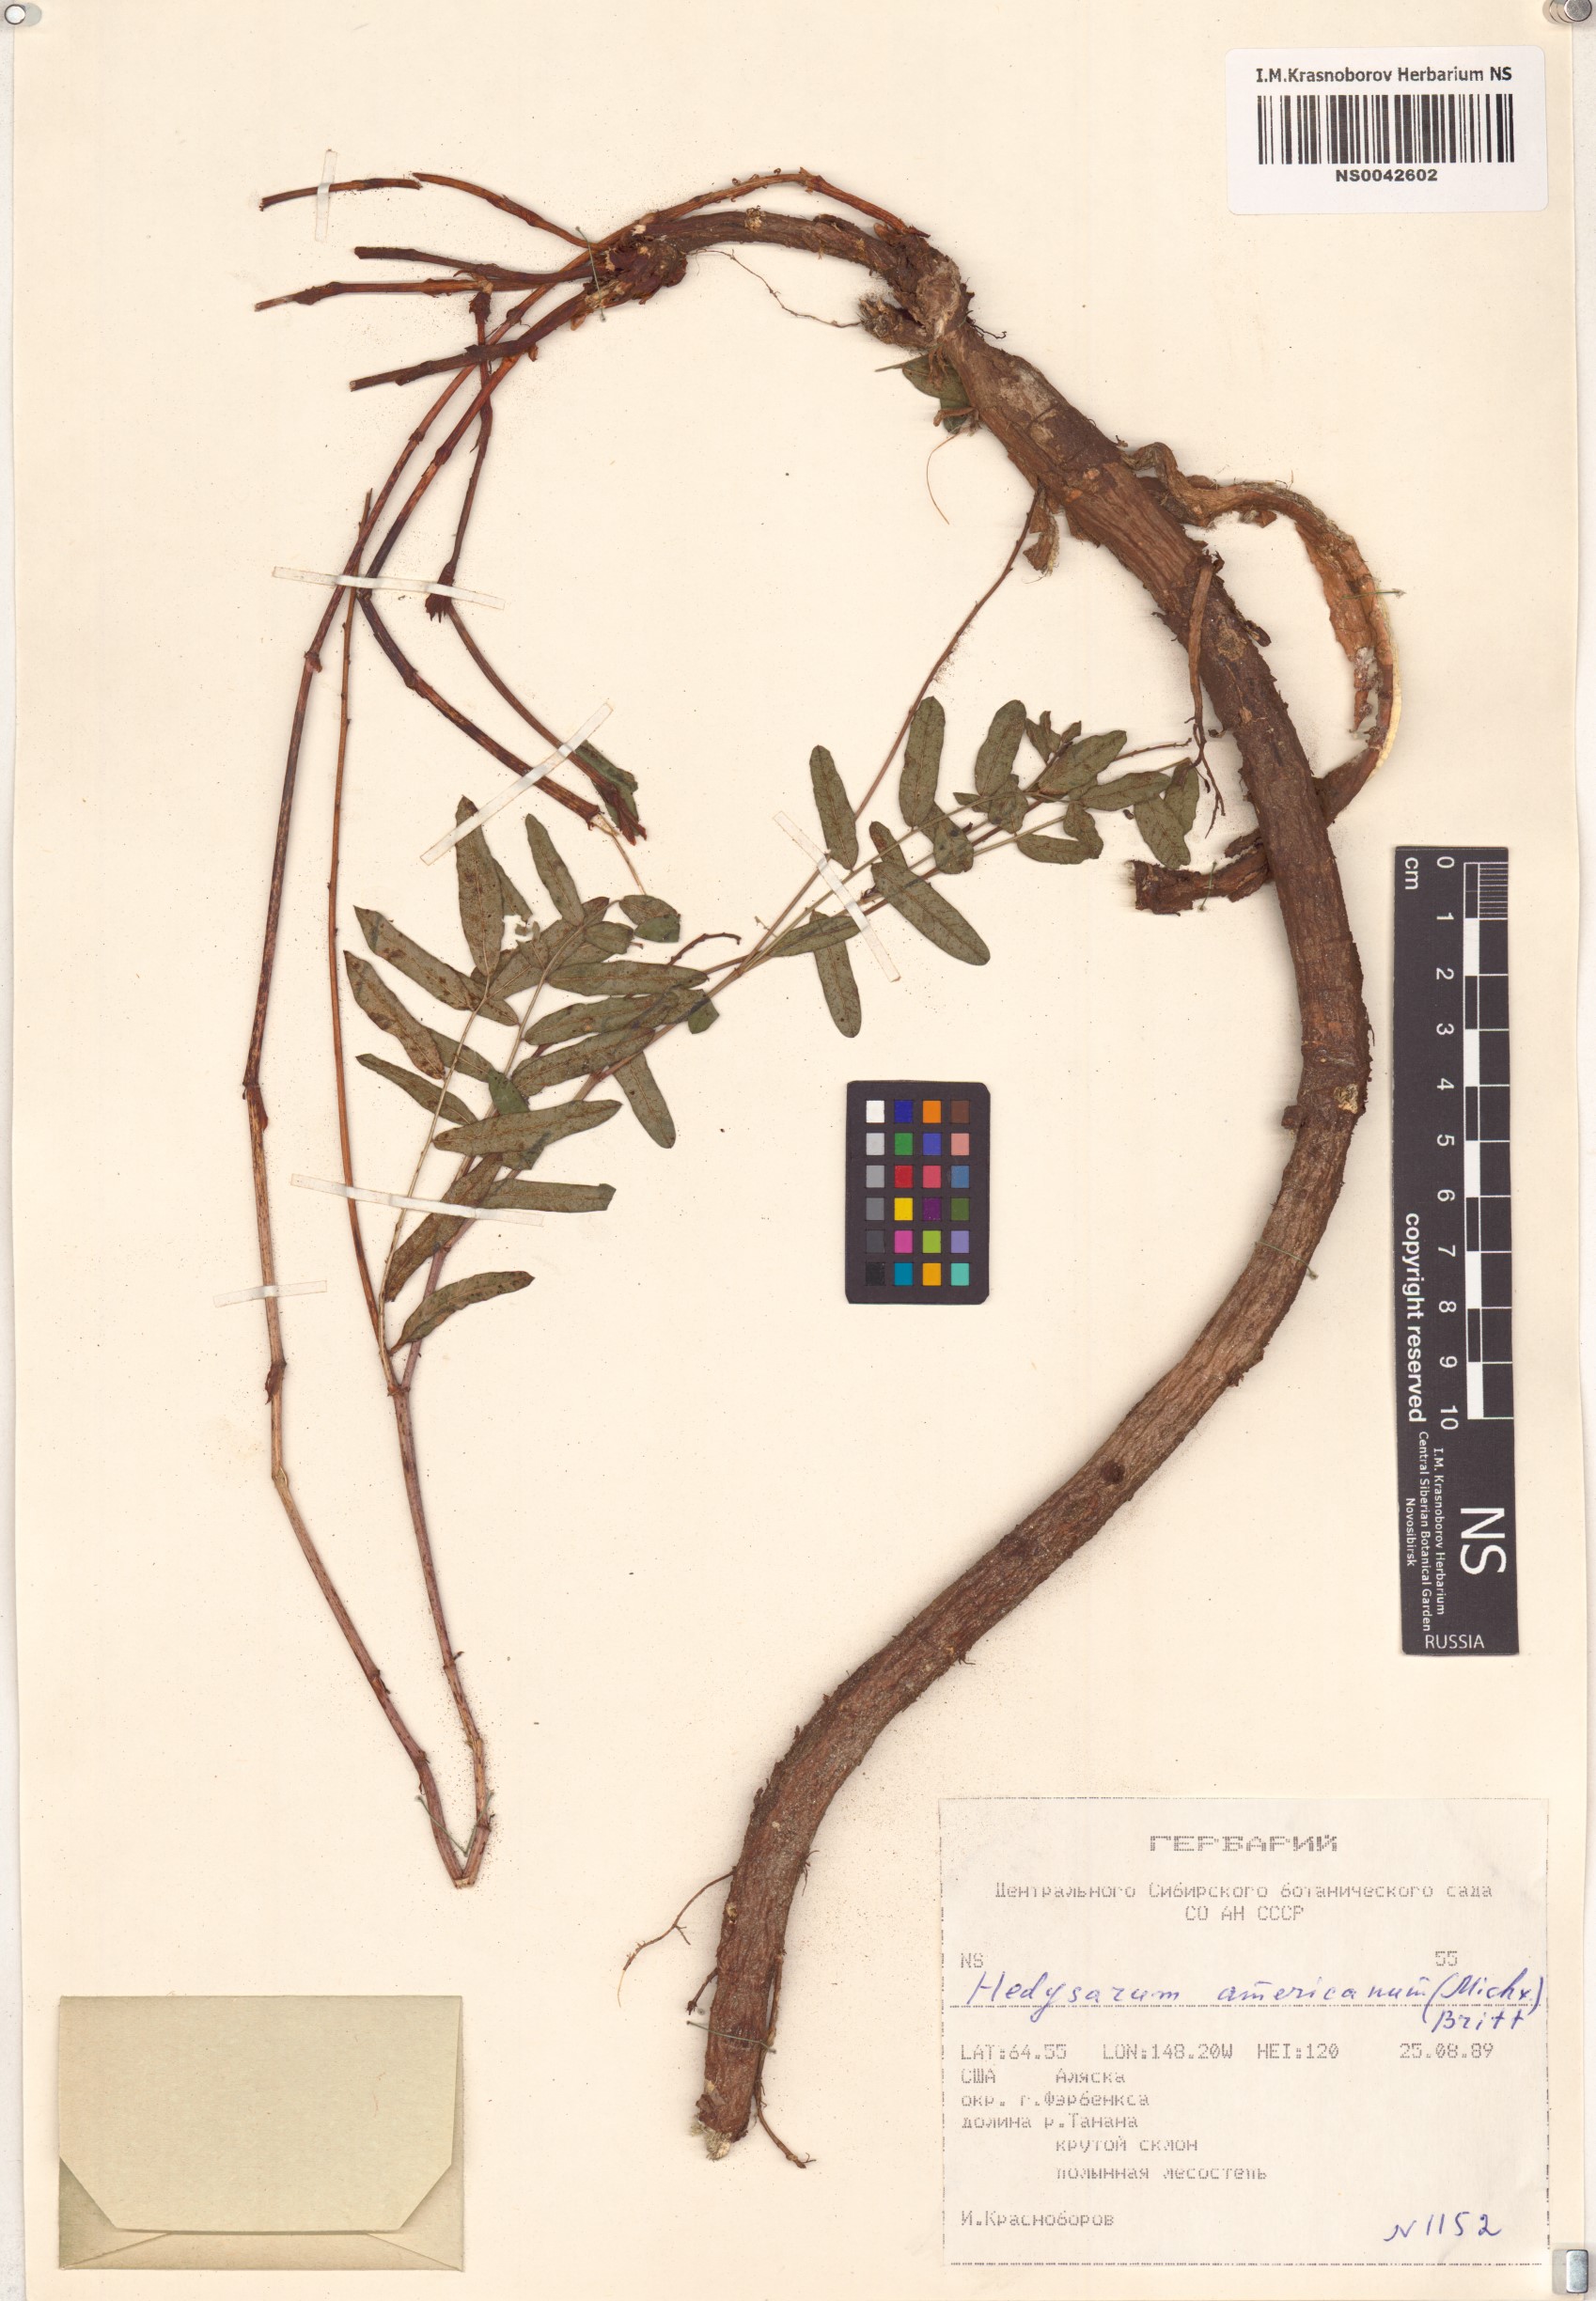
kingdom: Plantae
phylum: Tracheophyta
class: Magnoliopsida
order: Fabales
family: Fabaceae
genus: Hedysarum
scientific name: Hedysarum americanum
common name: Alpine hedysarum
